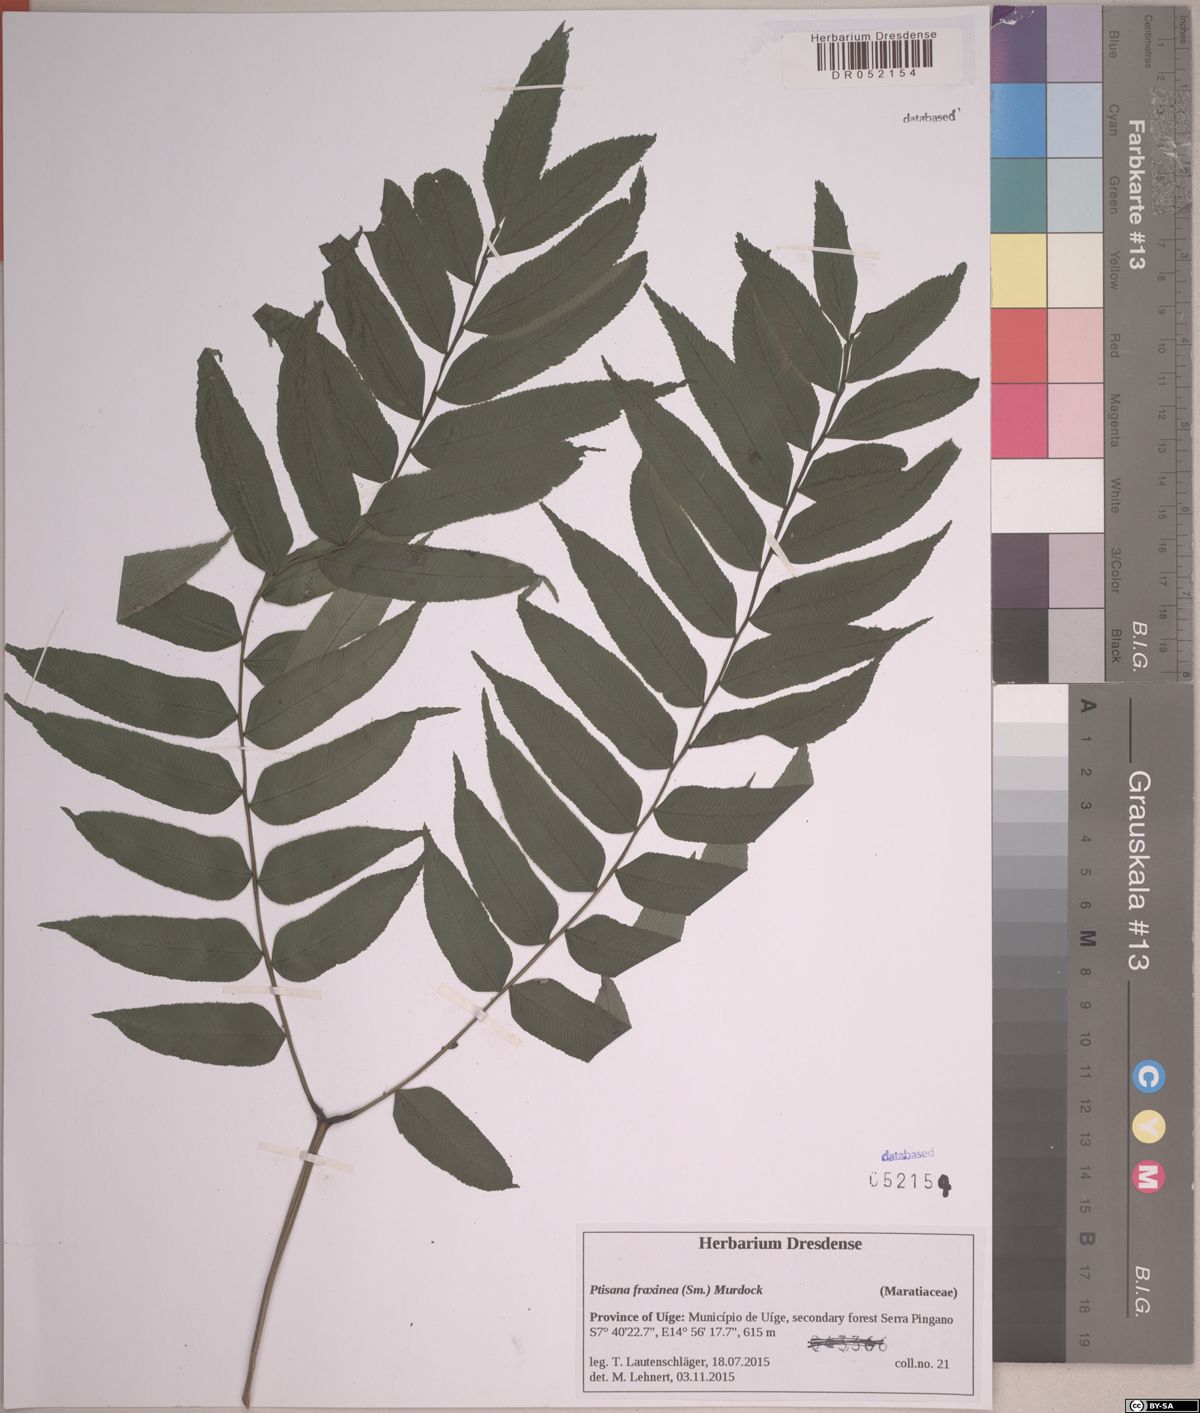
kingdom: Plantae
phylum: Tracheophyta
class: Polypodiopsida
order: Marattiales
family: Marattiaceae
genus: Ptisana
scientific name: Ptisana salicifolia
